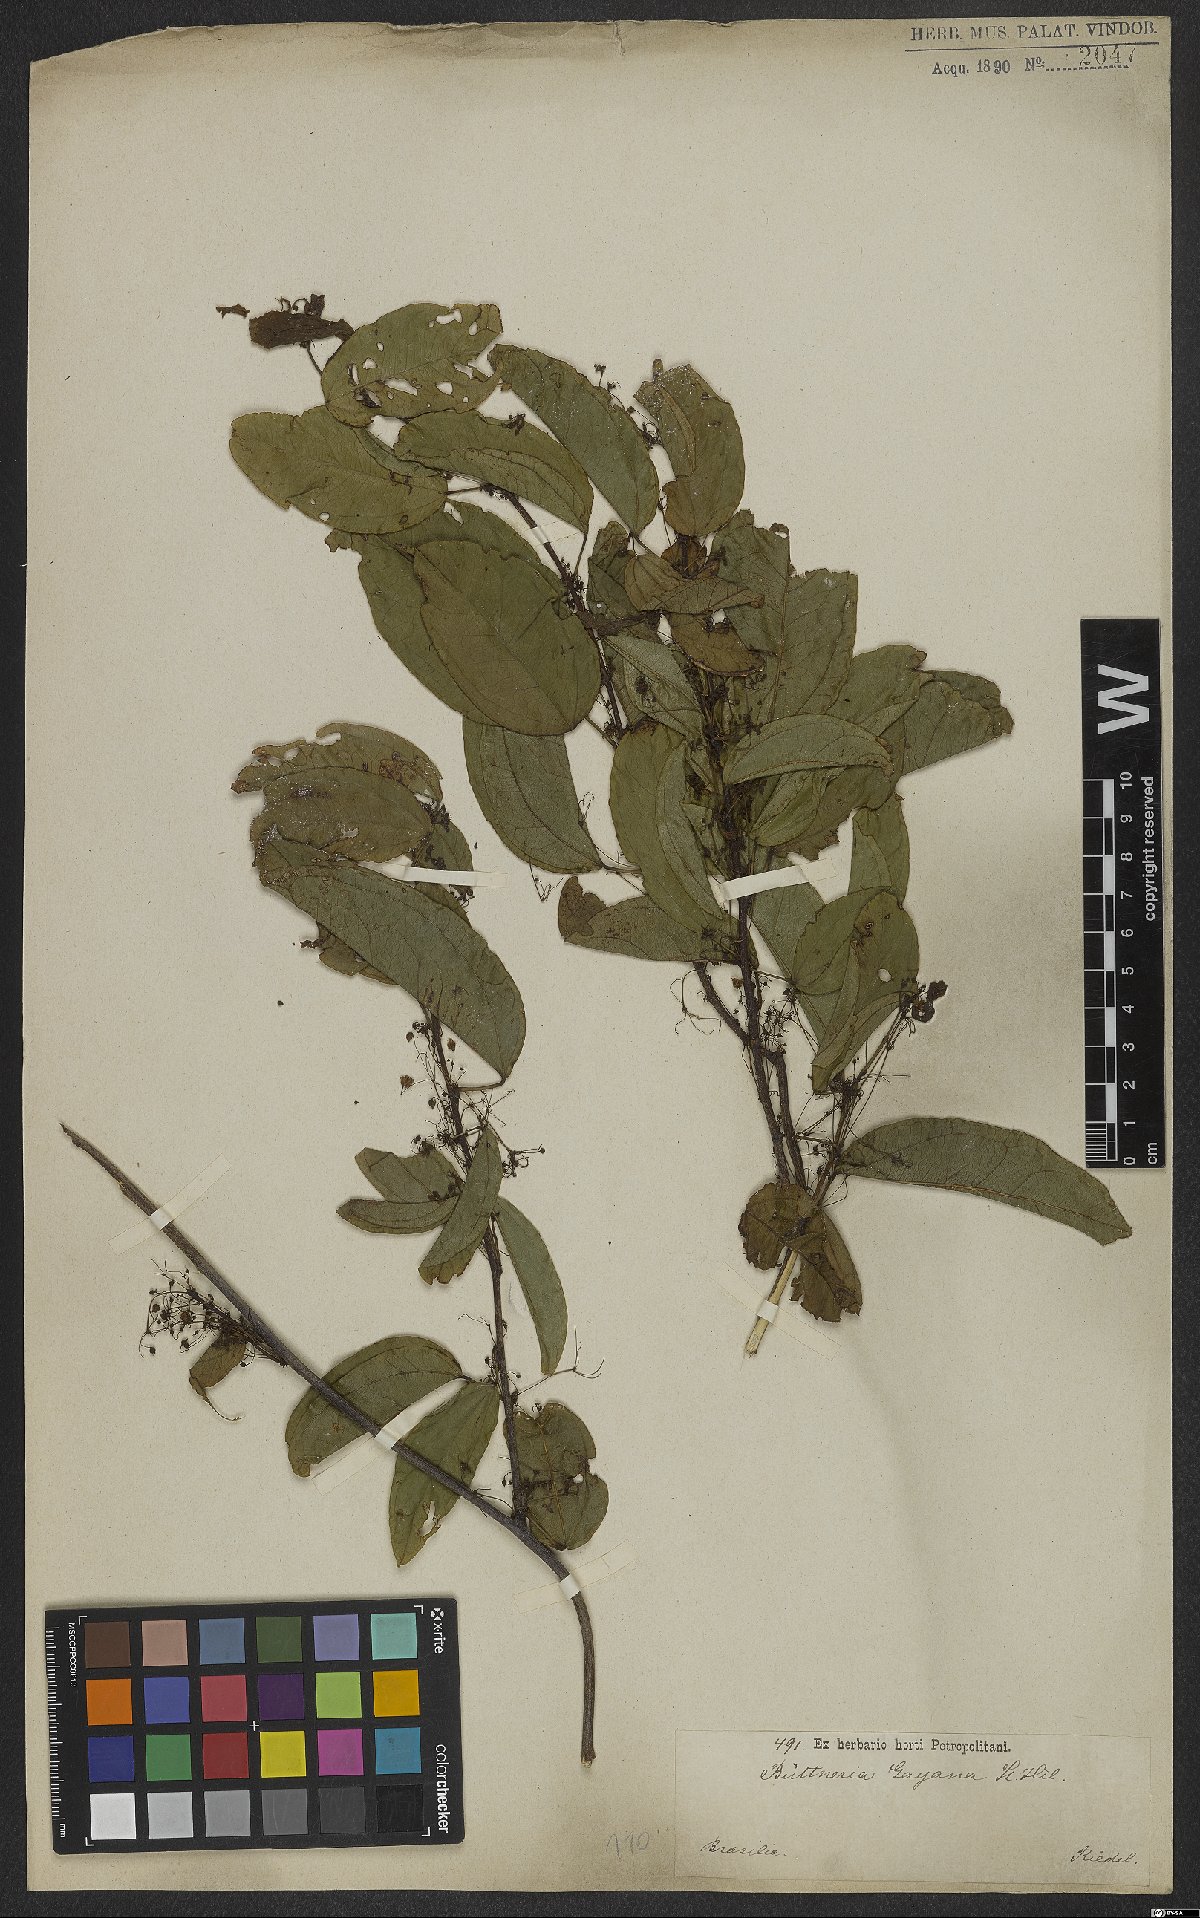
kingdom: Plantae
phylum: Tracheophyta
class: Magnoliopsida
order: Malvales
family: Malvaceae
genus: Byttneria
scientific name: Byttneria gayana
